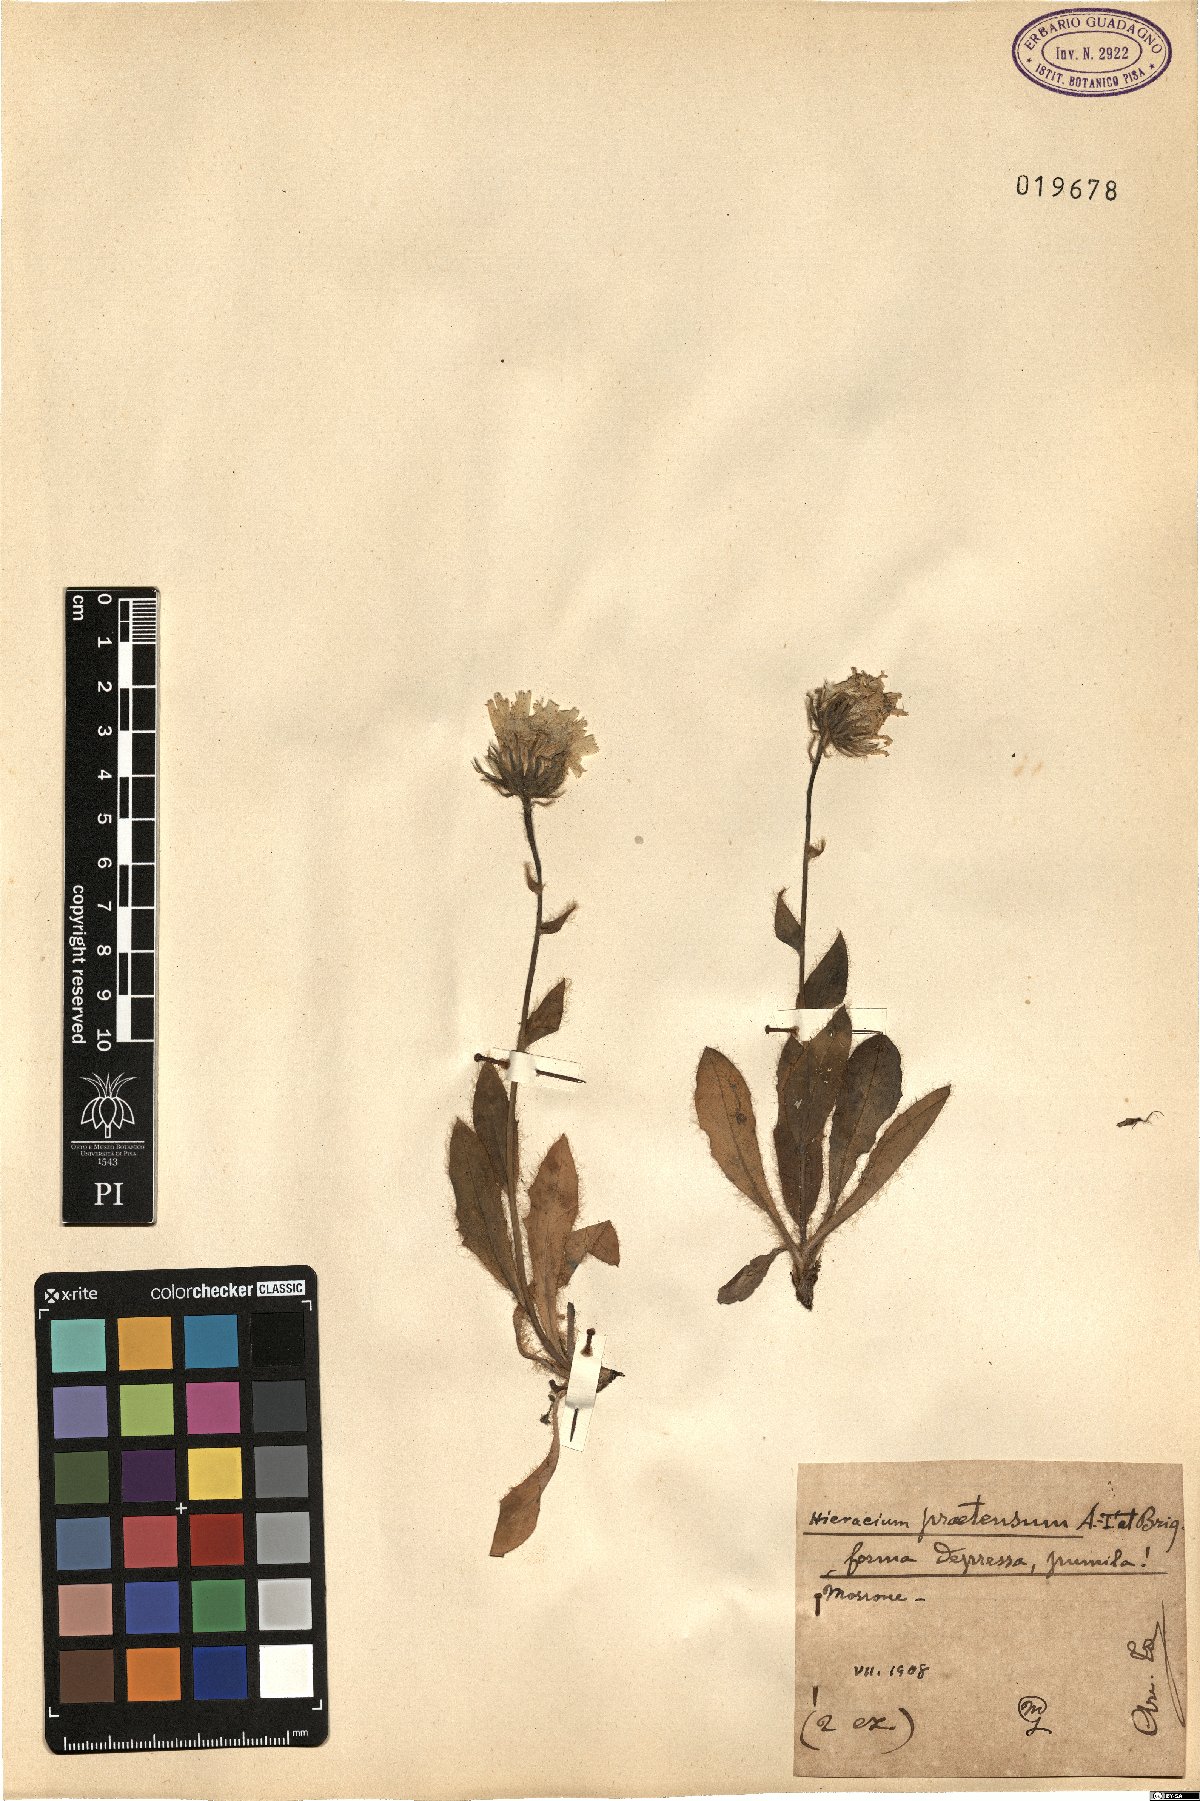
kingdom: Plantae
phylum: Tracheophyta
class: Magnoliopsida
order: Asterales
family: Asteraceae
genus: Hieracium
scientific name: Hieracium pilosum
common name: Fimbriate-pitted hawkweed
